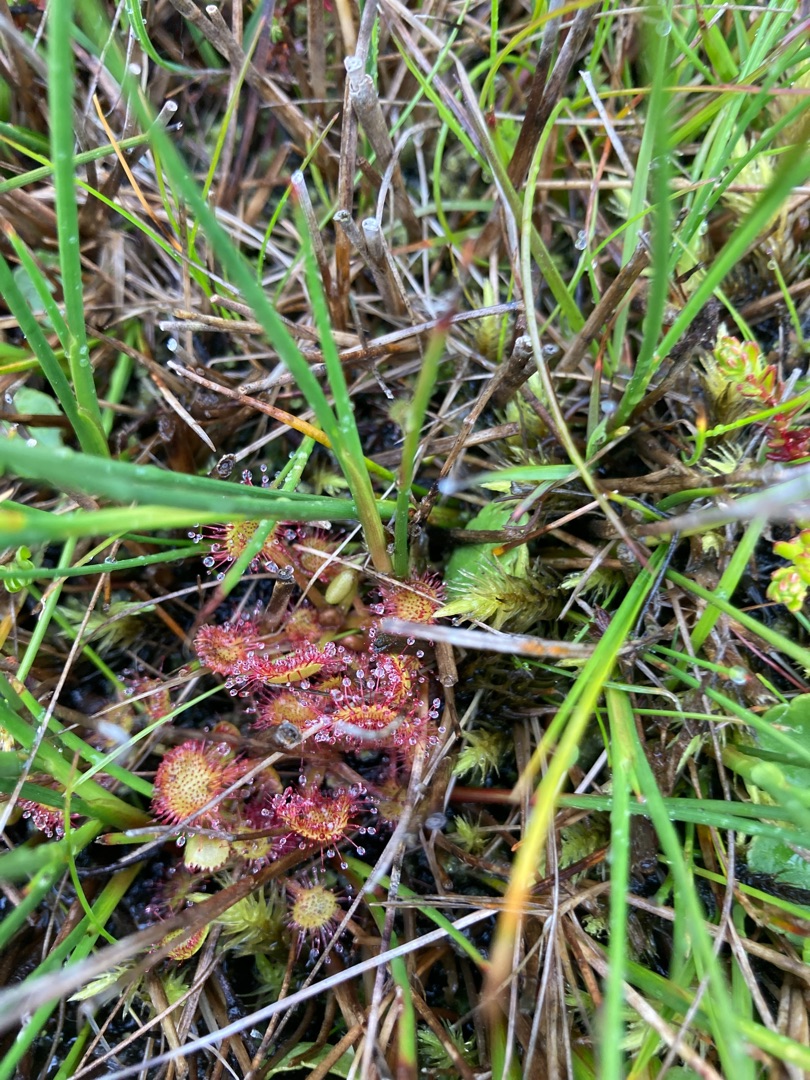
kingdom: Plantae
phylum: Tracheophyta
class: Magnoliopsida
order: Caryophyllales
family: Droseraceae
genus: Drosera
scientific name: Drosera rotundifolia
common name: Rundbladet soldug
